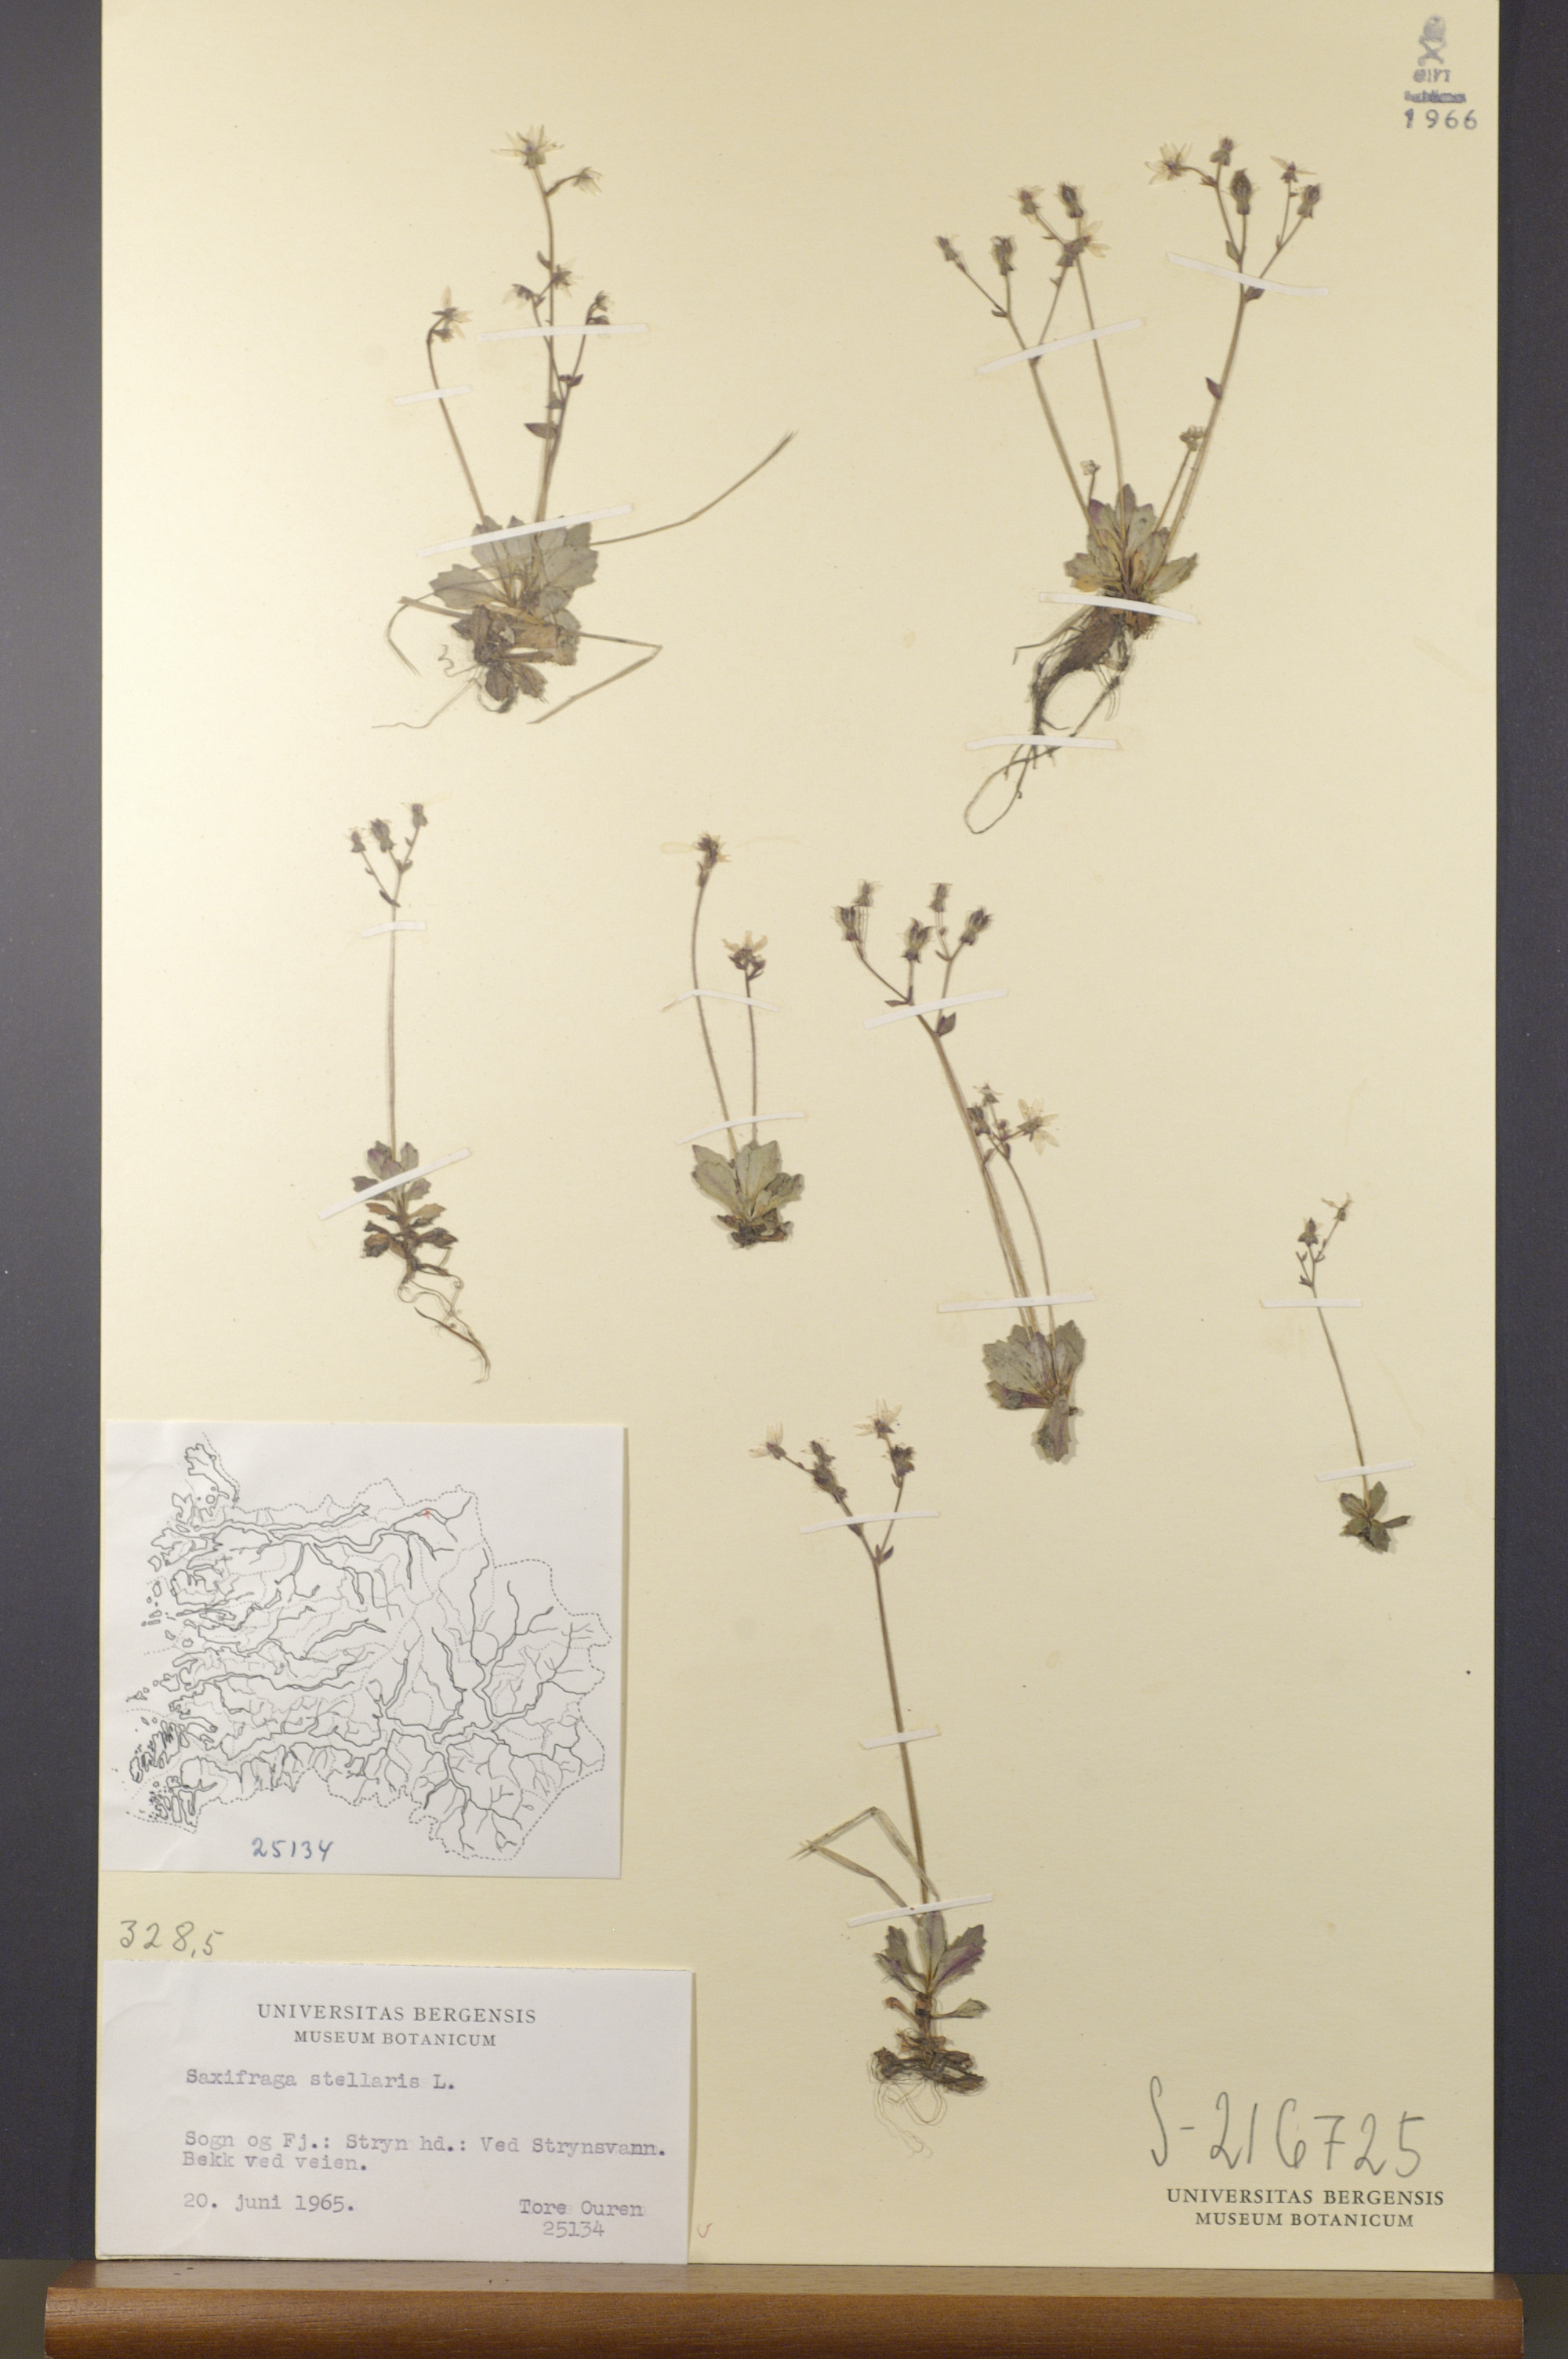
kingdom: Plantae
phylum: Tracheophyta
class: Magnoliopsida
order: Saxifragales
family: Saxifragaceae
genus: Micranthes
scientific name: Micranthes stellaris
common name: Starry saxifrage
